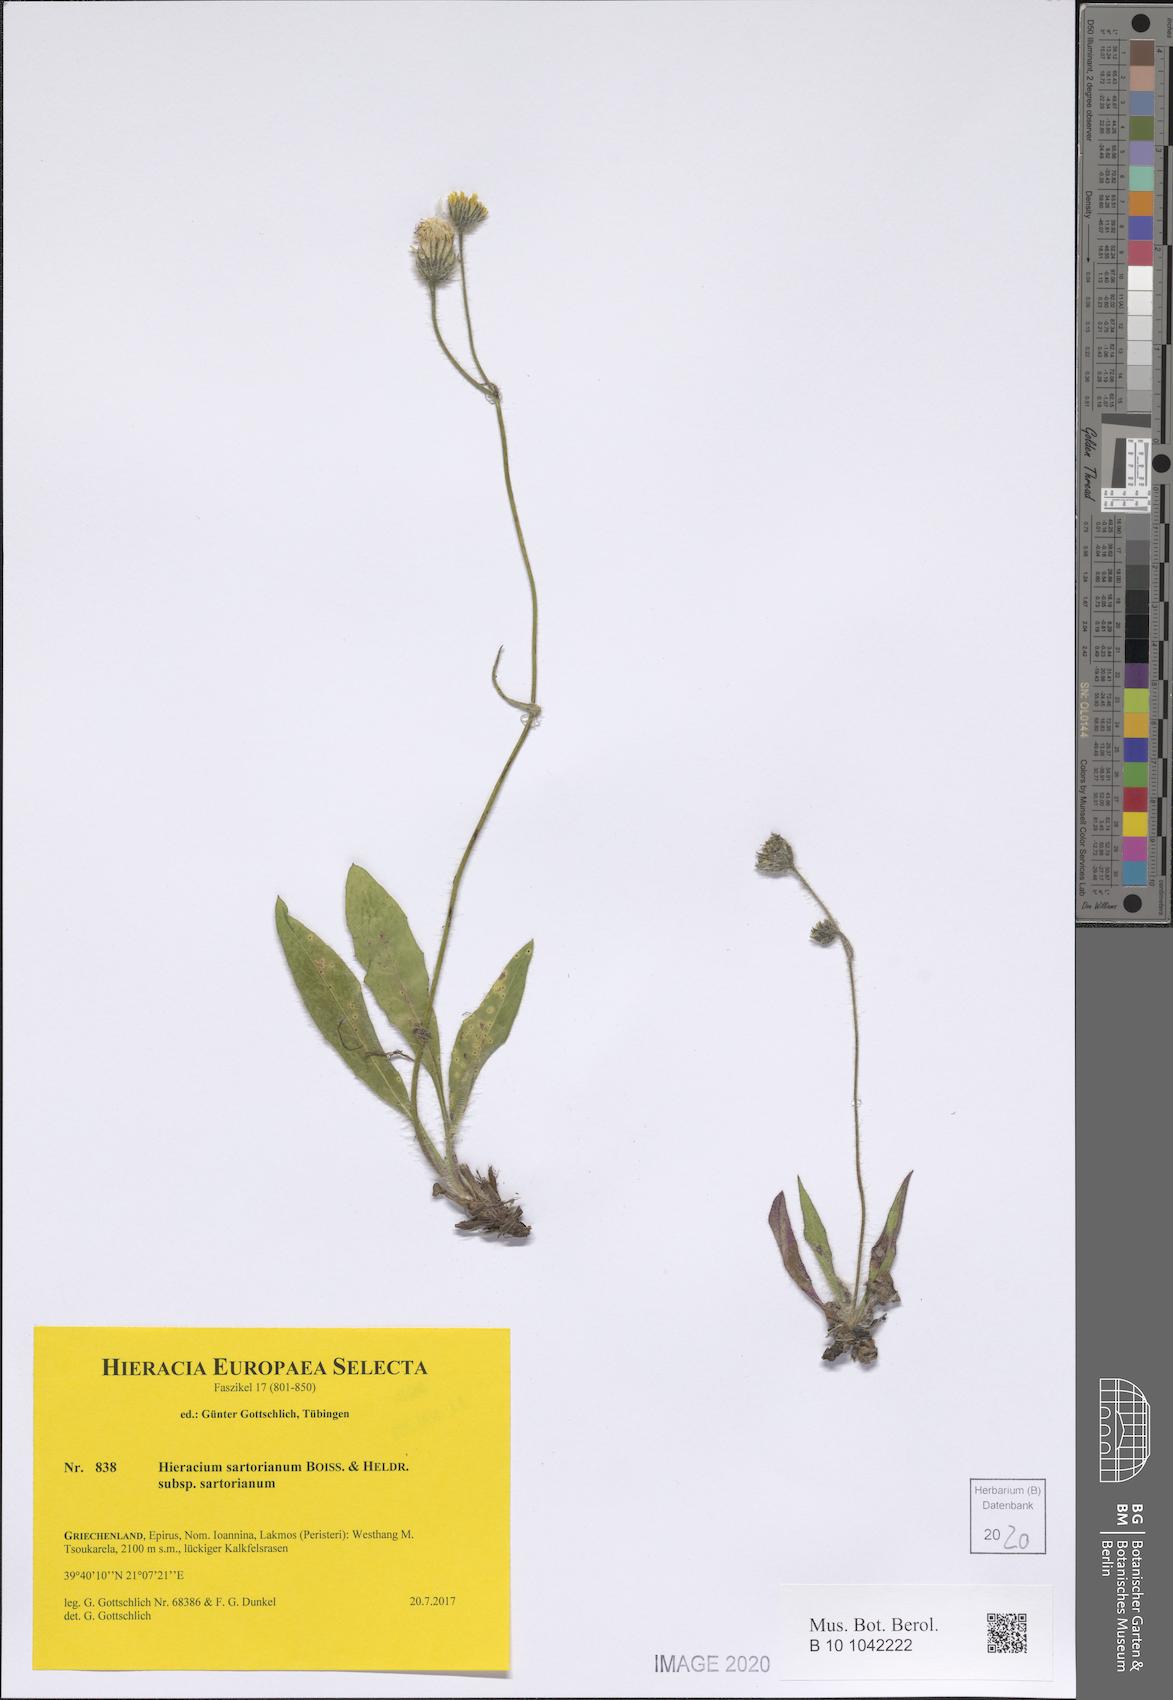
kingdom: Plantae
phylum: Tracheophyta
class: Magnoliopsida
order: Asterales
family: Asteraceae
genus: Hieracium
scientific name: Hieracium sartorianum
